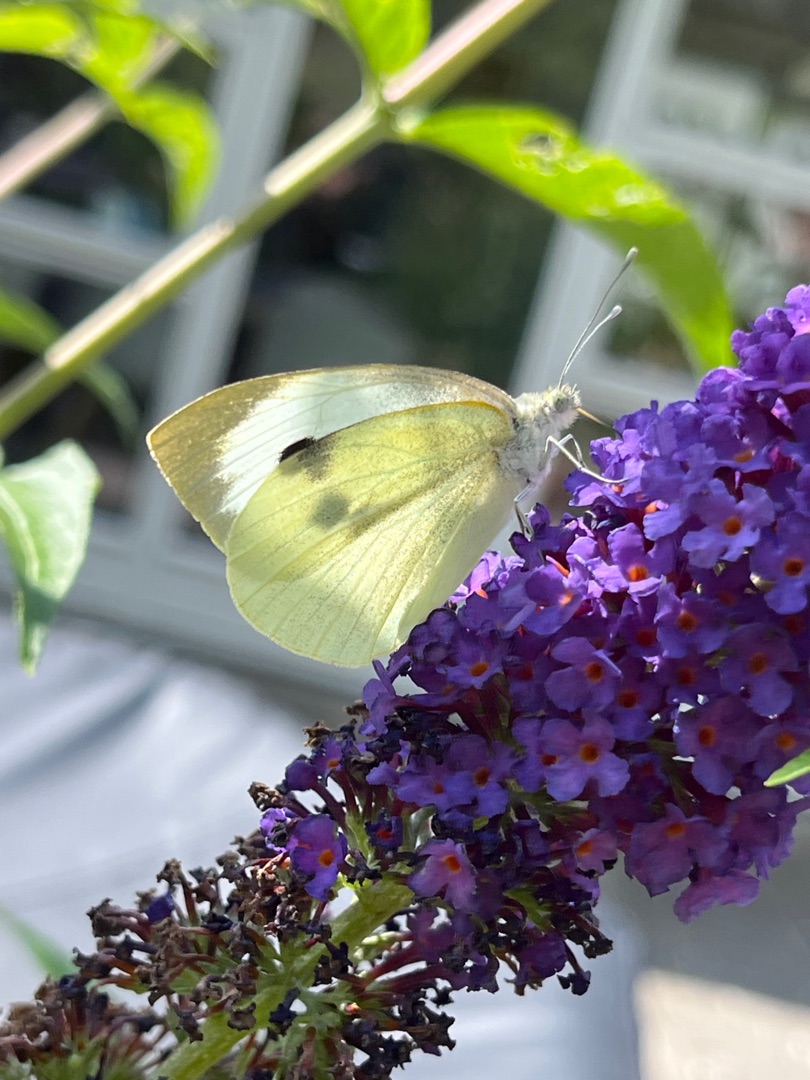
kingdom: Animalia
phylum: Arthropoda
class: Insecta
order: Lepidoptera
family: Pieridae
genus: Pieris
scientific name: Pieris brassicae
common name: Stor kålsommerfugl
